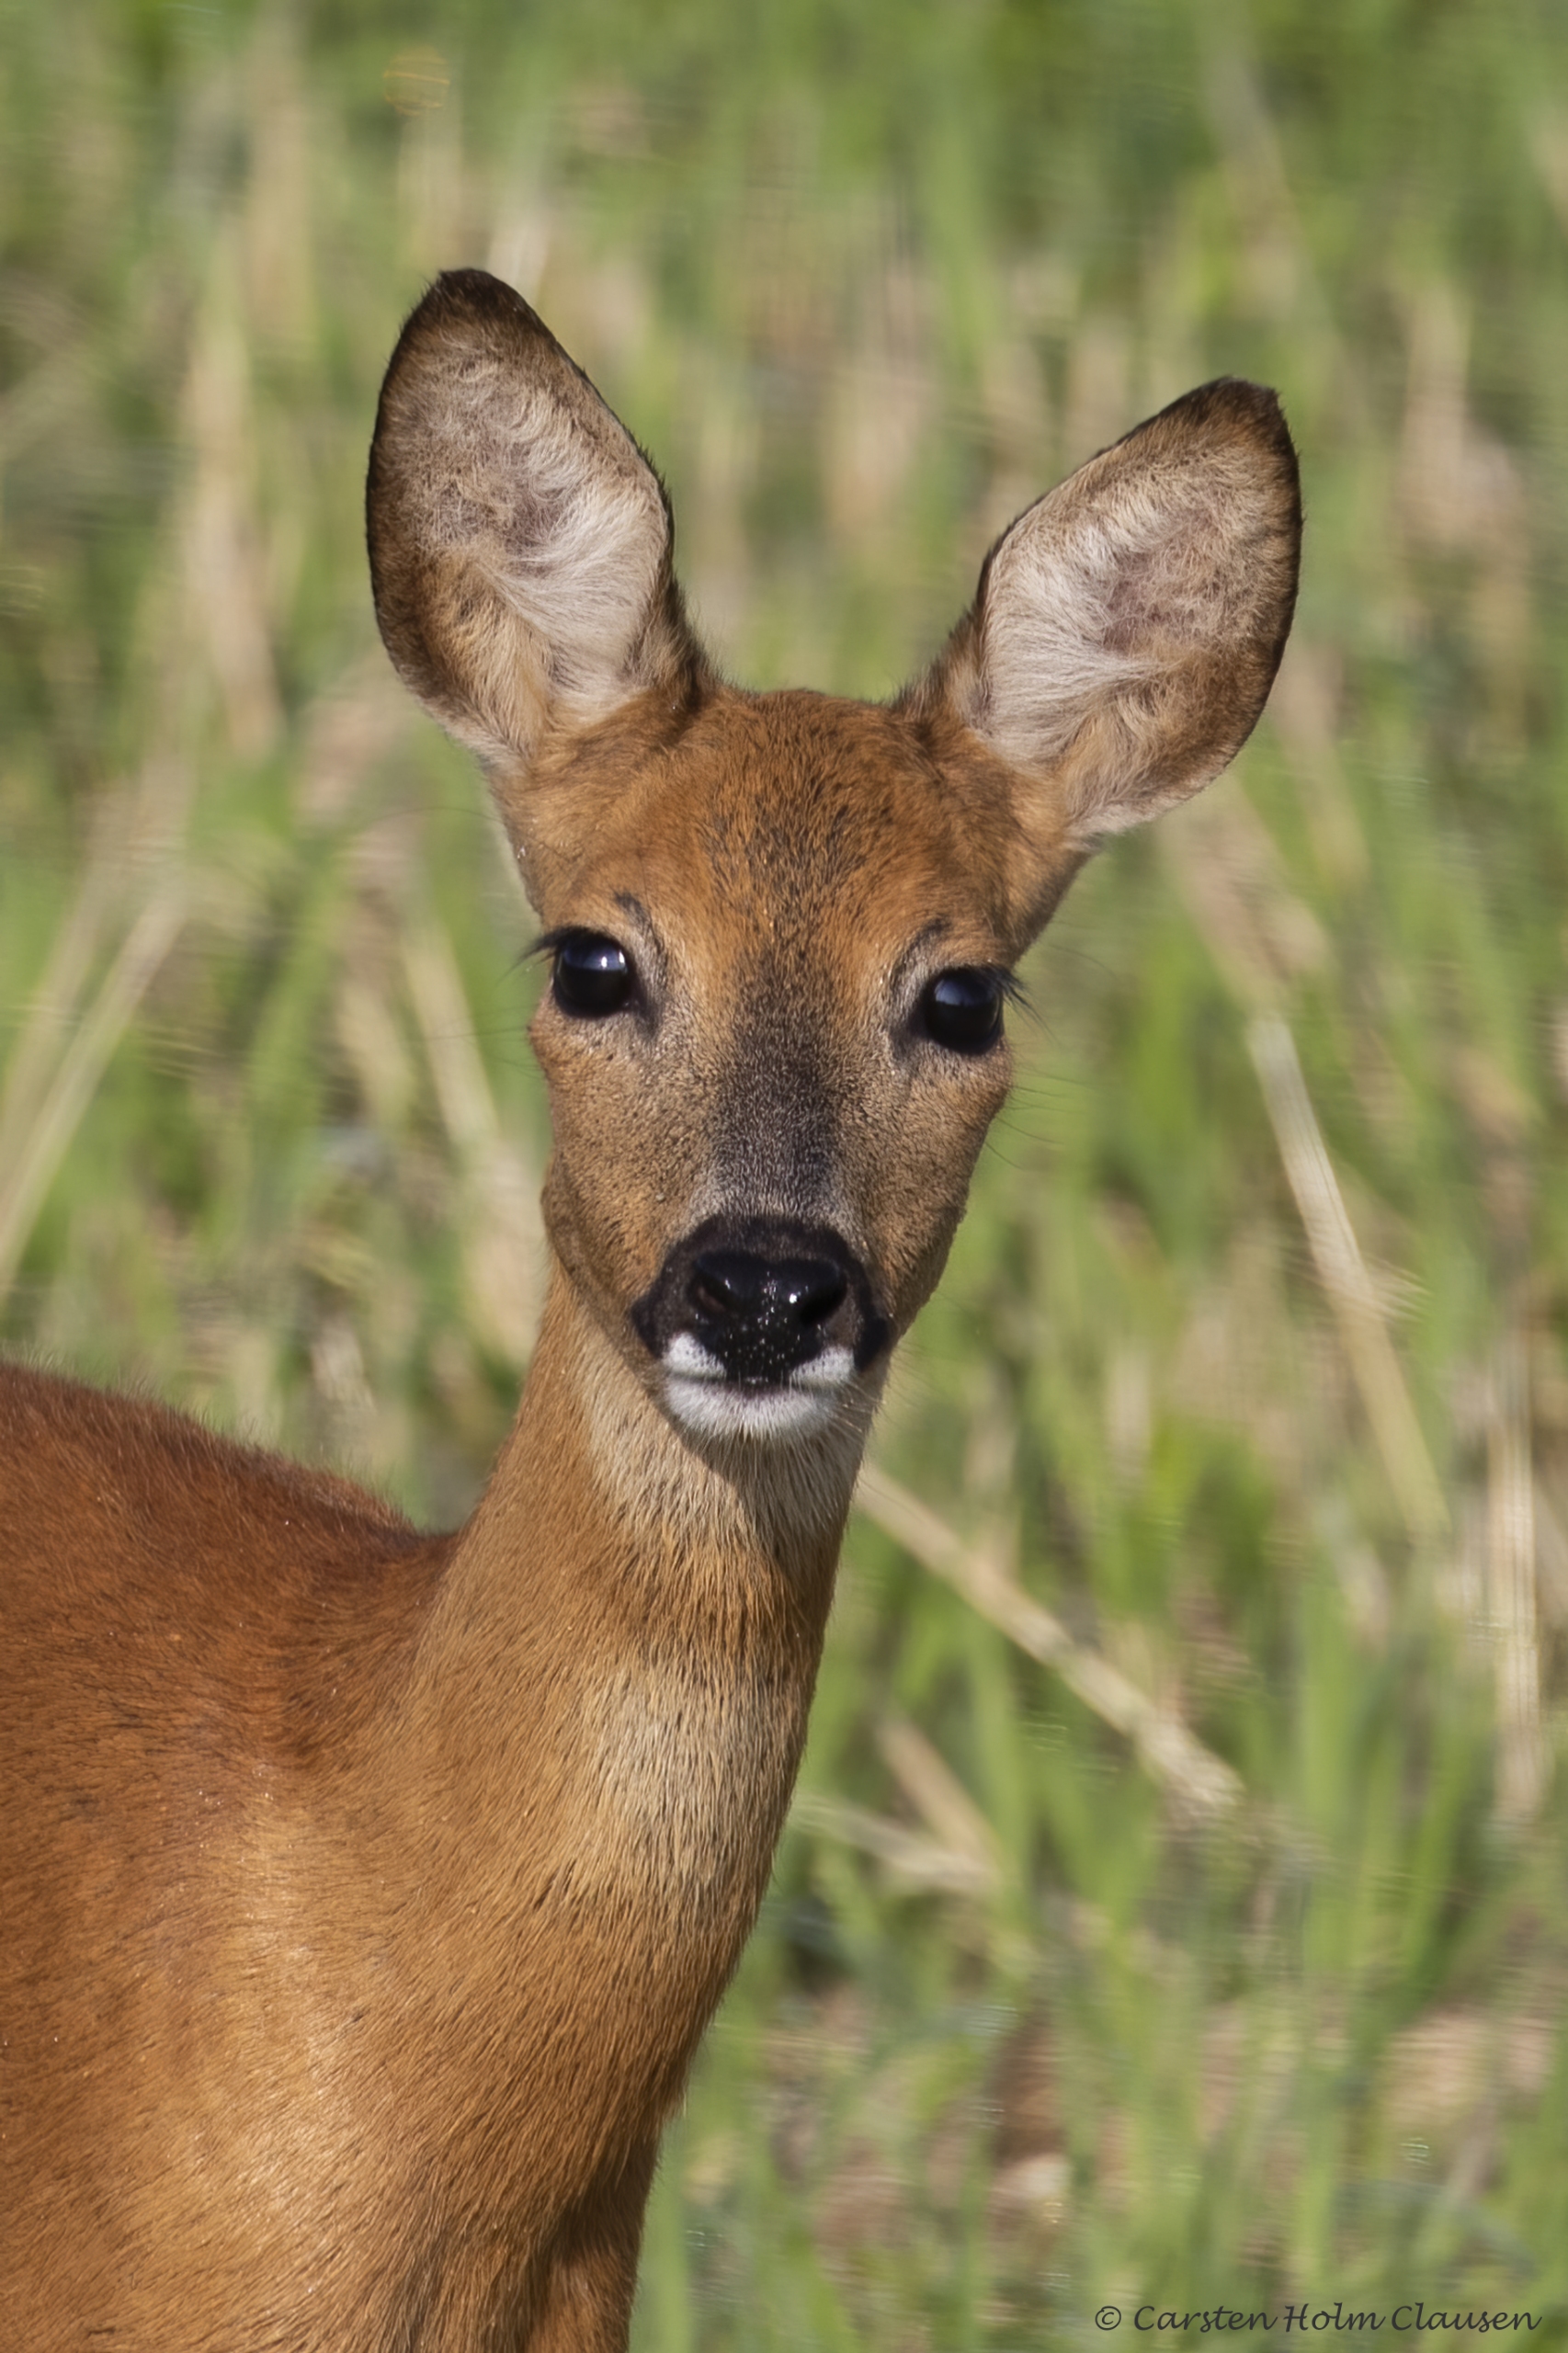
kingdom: Animalia
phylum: Chordata
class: Mammalia
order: Artiodactyla
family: Cervidae
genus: Capreolus
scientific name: Capreolus capreolus
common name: Rådyr
